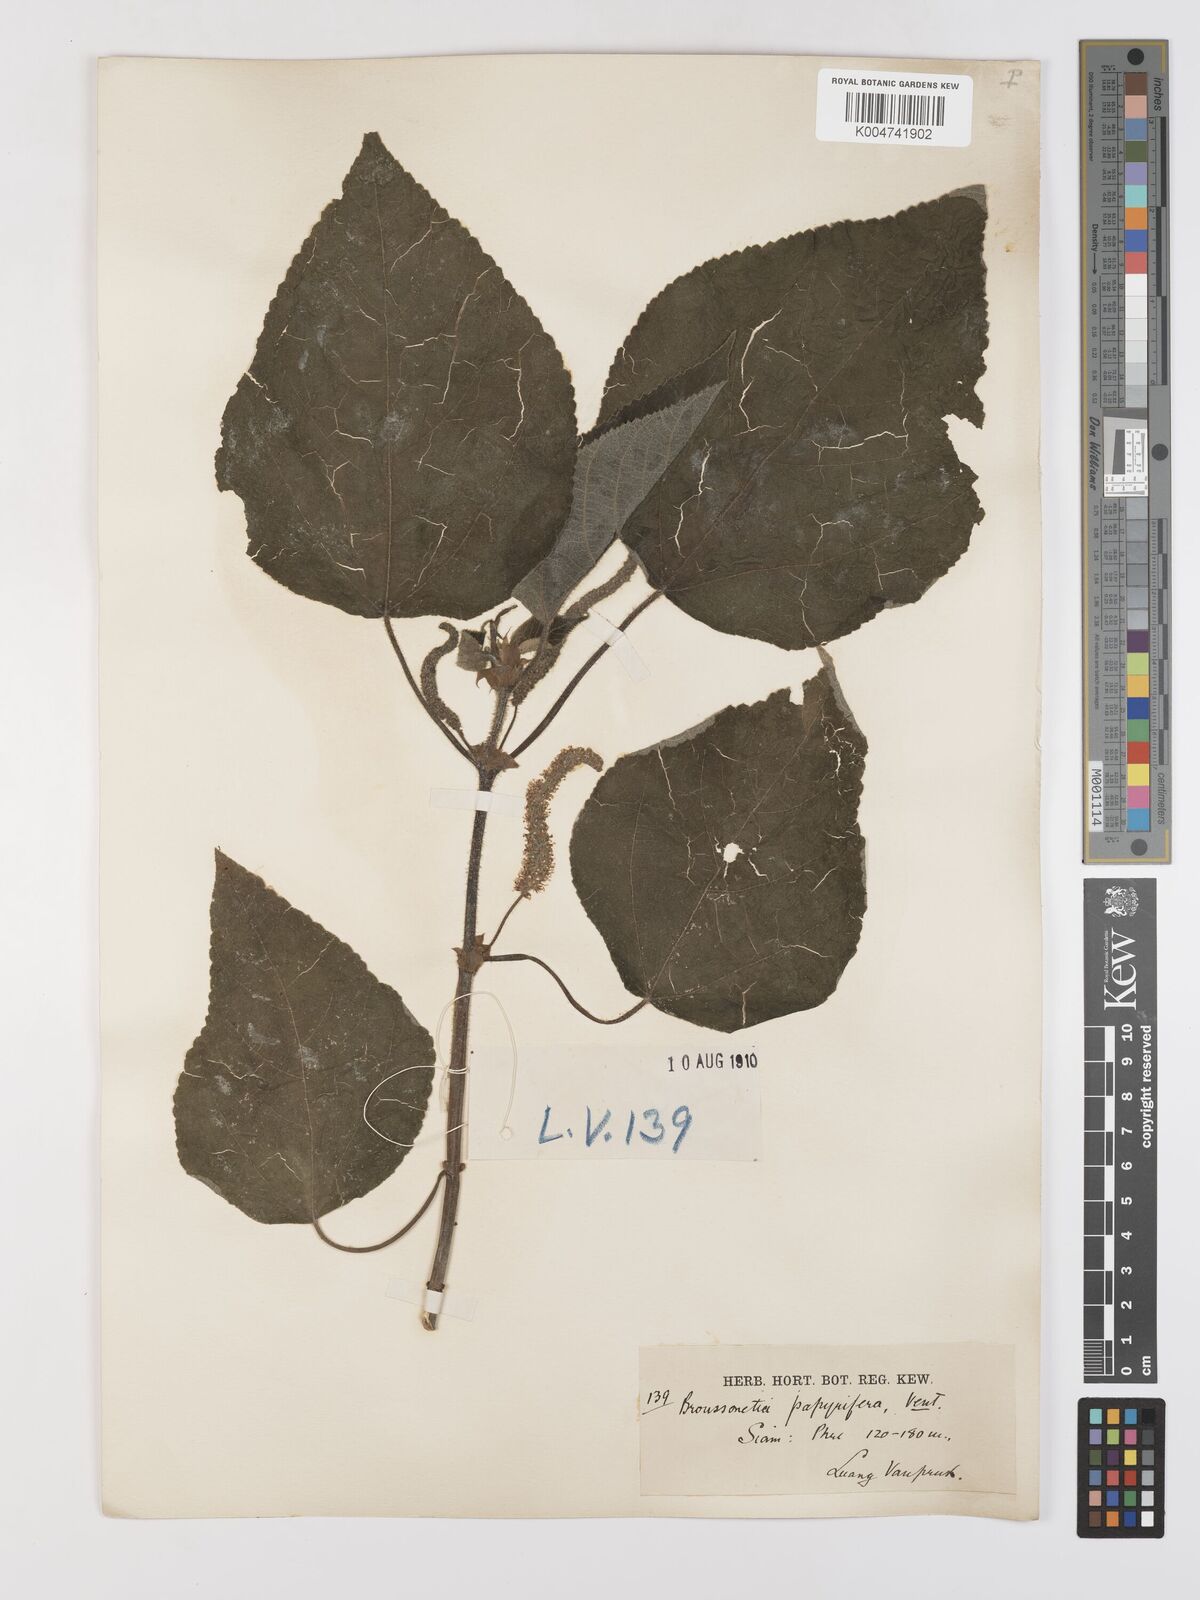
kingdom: Plantae
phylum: Tracheophyta
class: Magnoliopsida
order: Rosales
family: Moraceae
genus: Broussonetia
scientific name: Broussonetia papyrifera
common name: Paper mulberry
